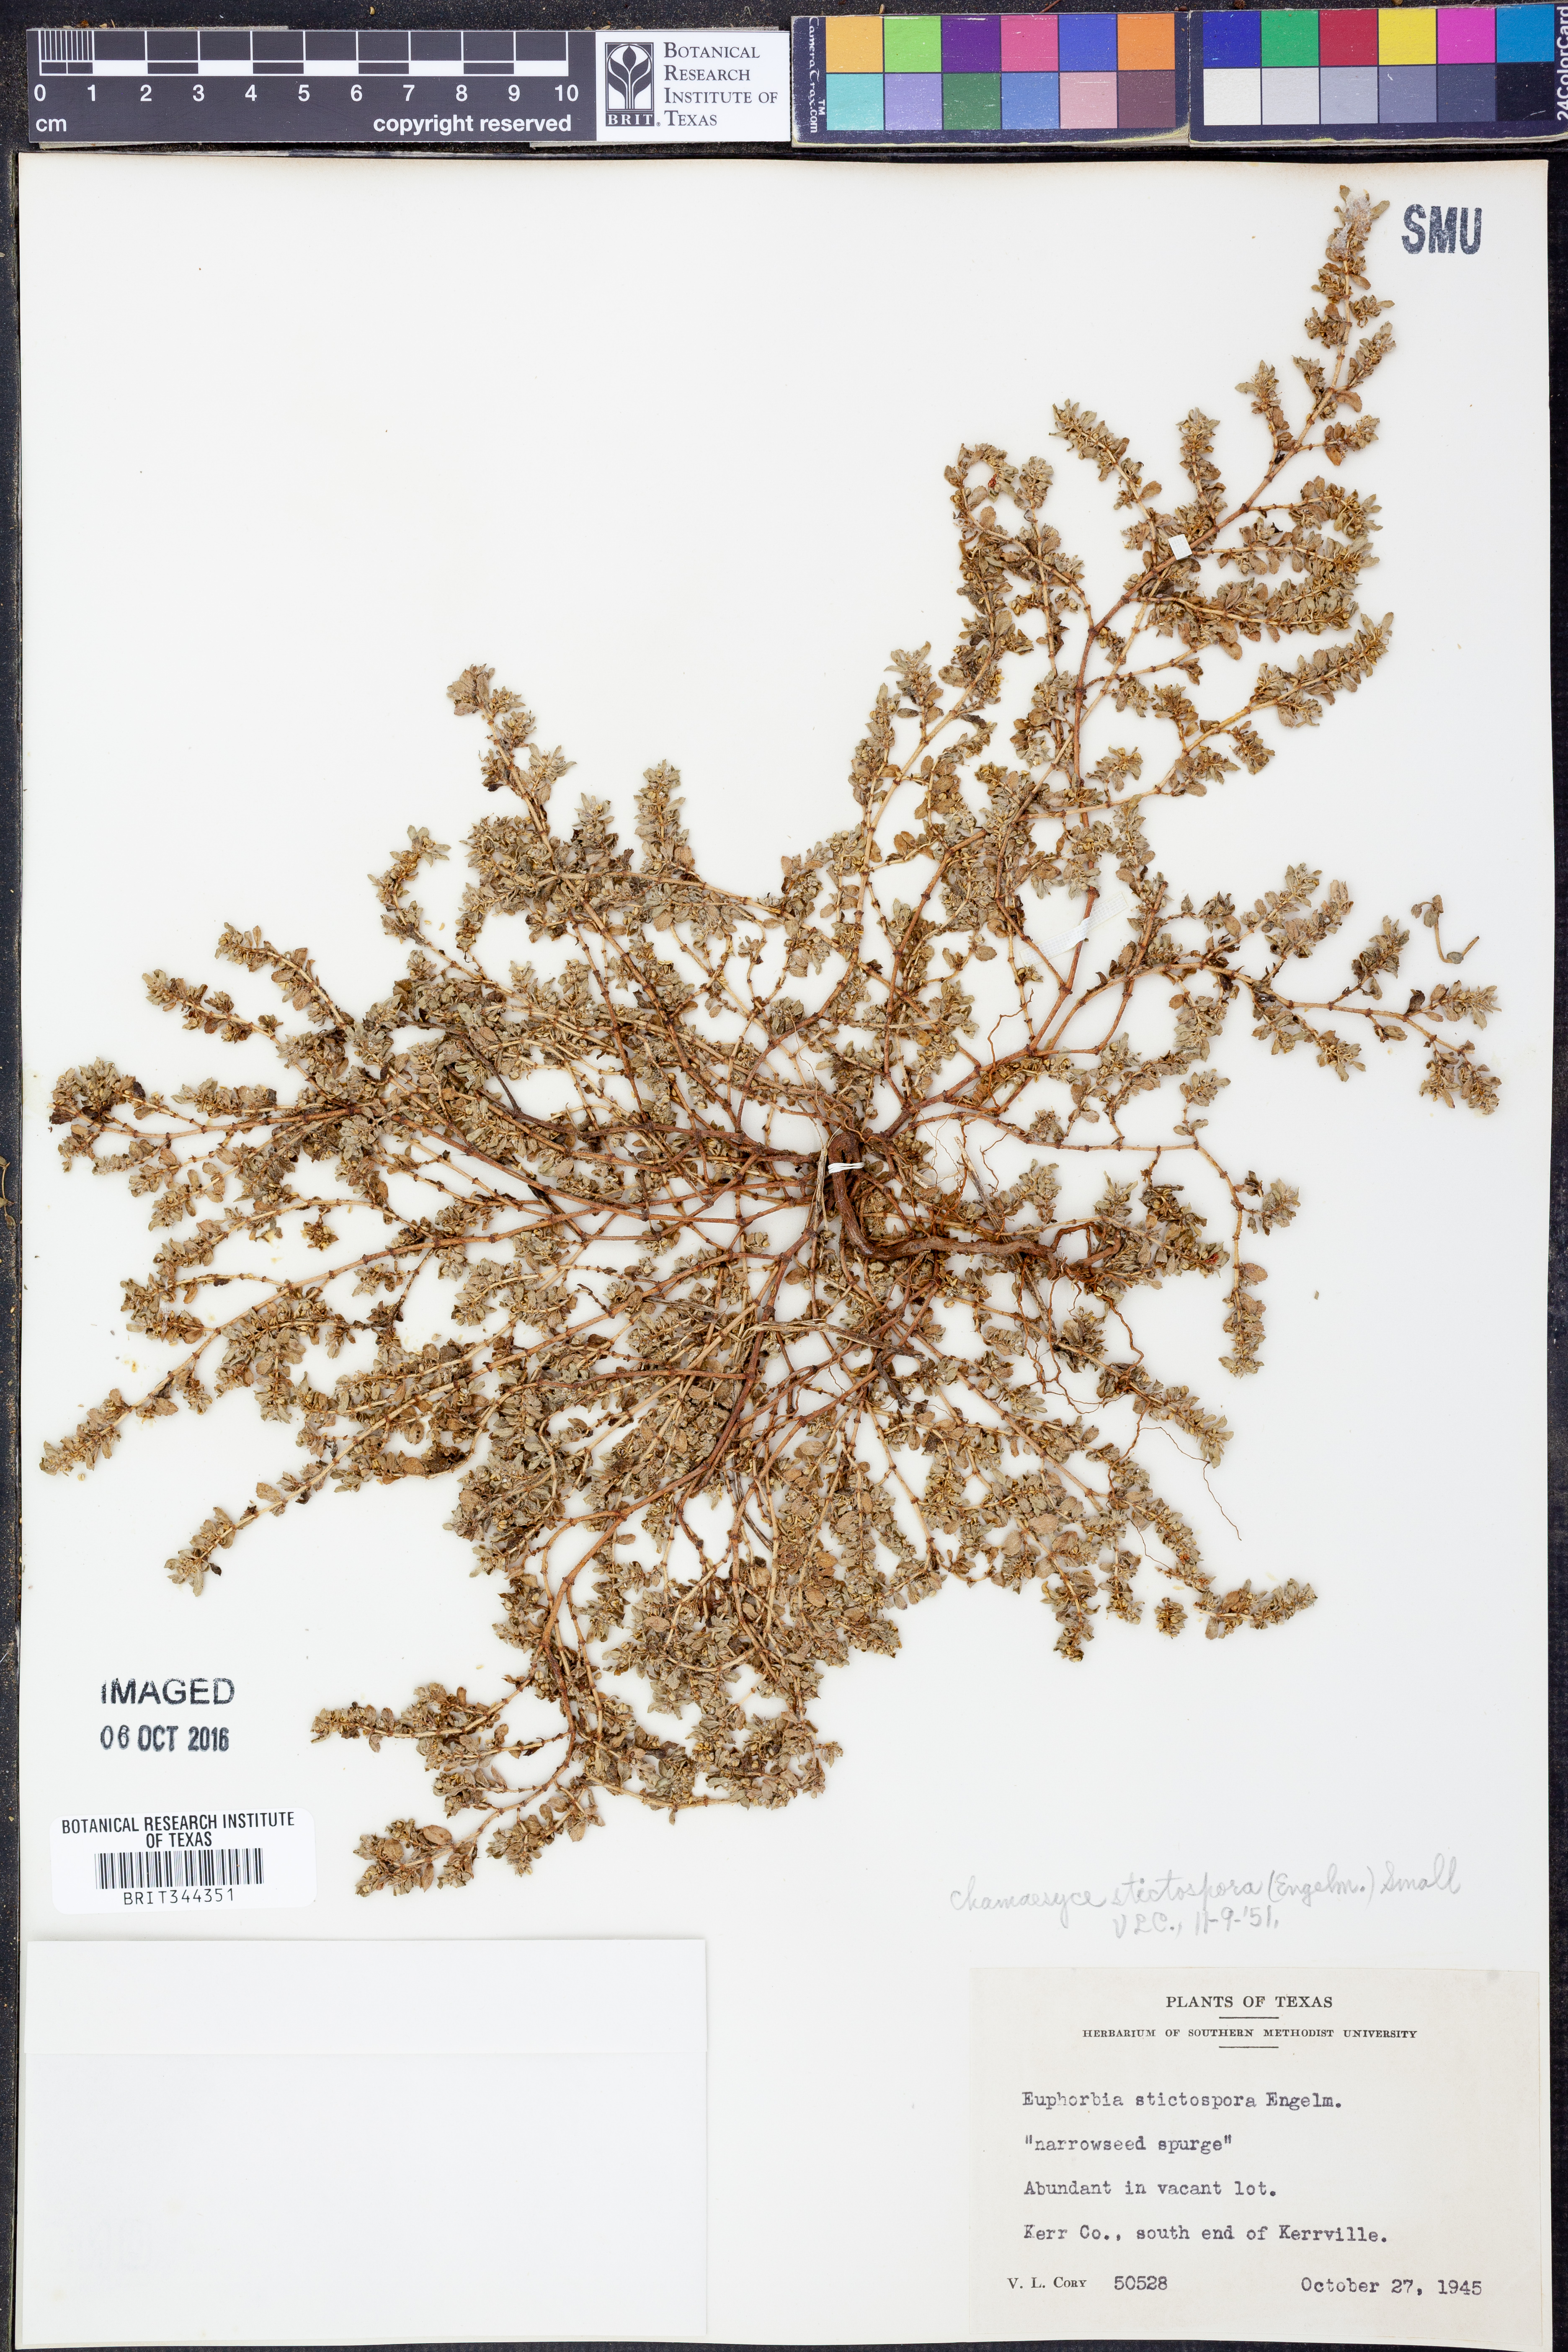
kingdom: Plantae
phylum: Tracheophyta
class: Magnoliopsida
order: Malpighiales
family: Euphorbiaceae
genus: Euphorbia
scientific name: Euphorbia stictospora
